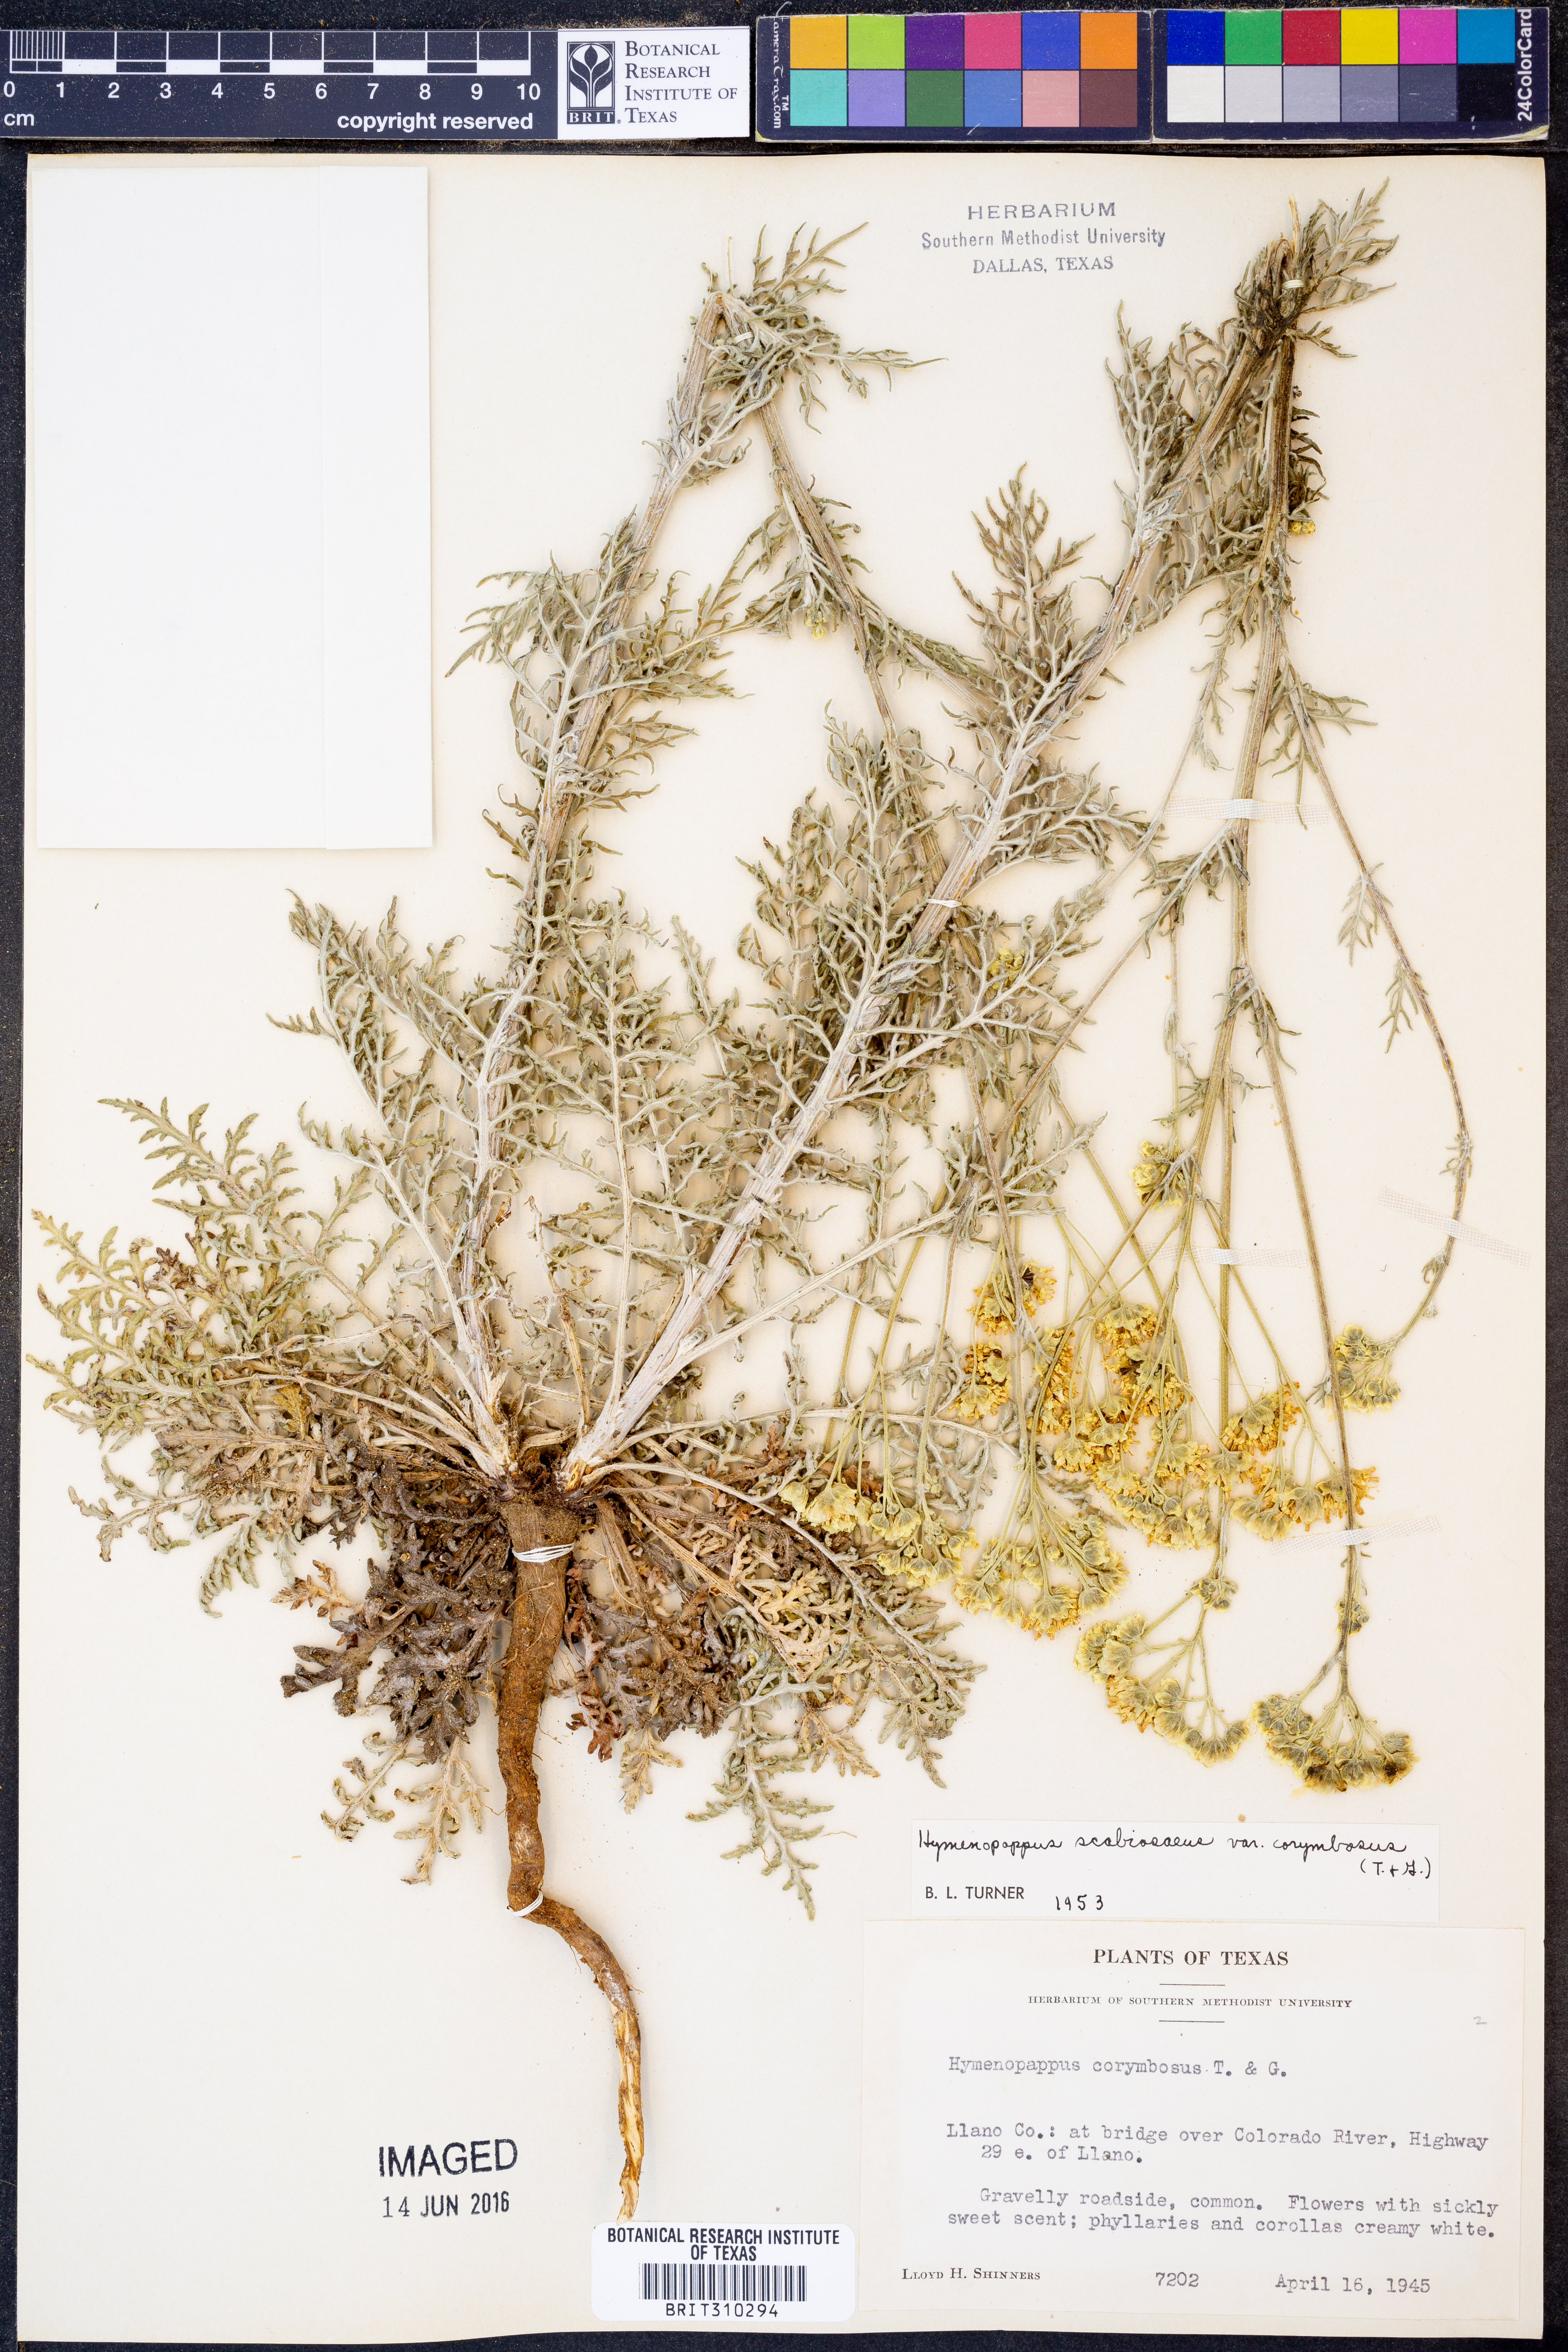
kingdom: Plantae
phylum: Tracheophyta
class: Magnoliopsida
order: Asterales
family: Asteraceae
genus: Hymenopappus
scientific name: Hymenopappus scabiosaeus
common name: Carolina woollywhite
